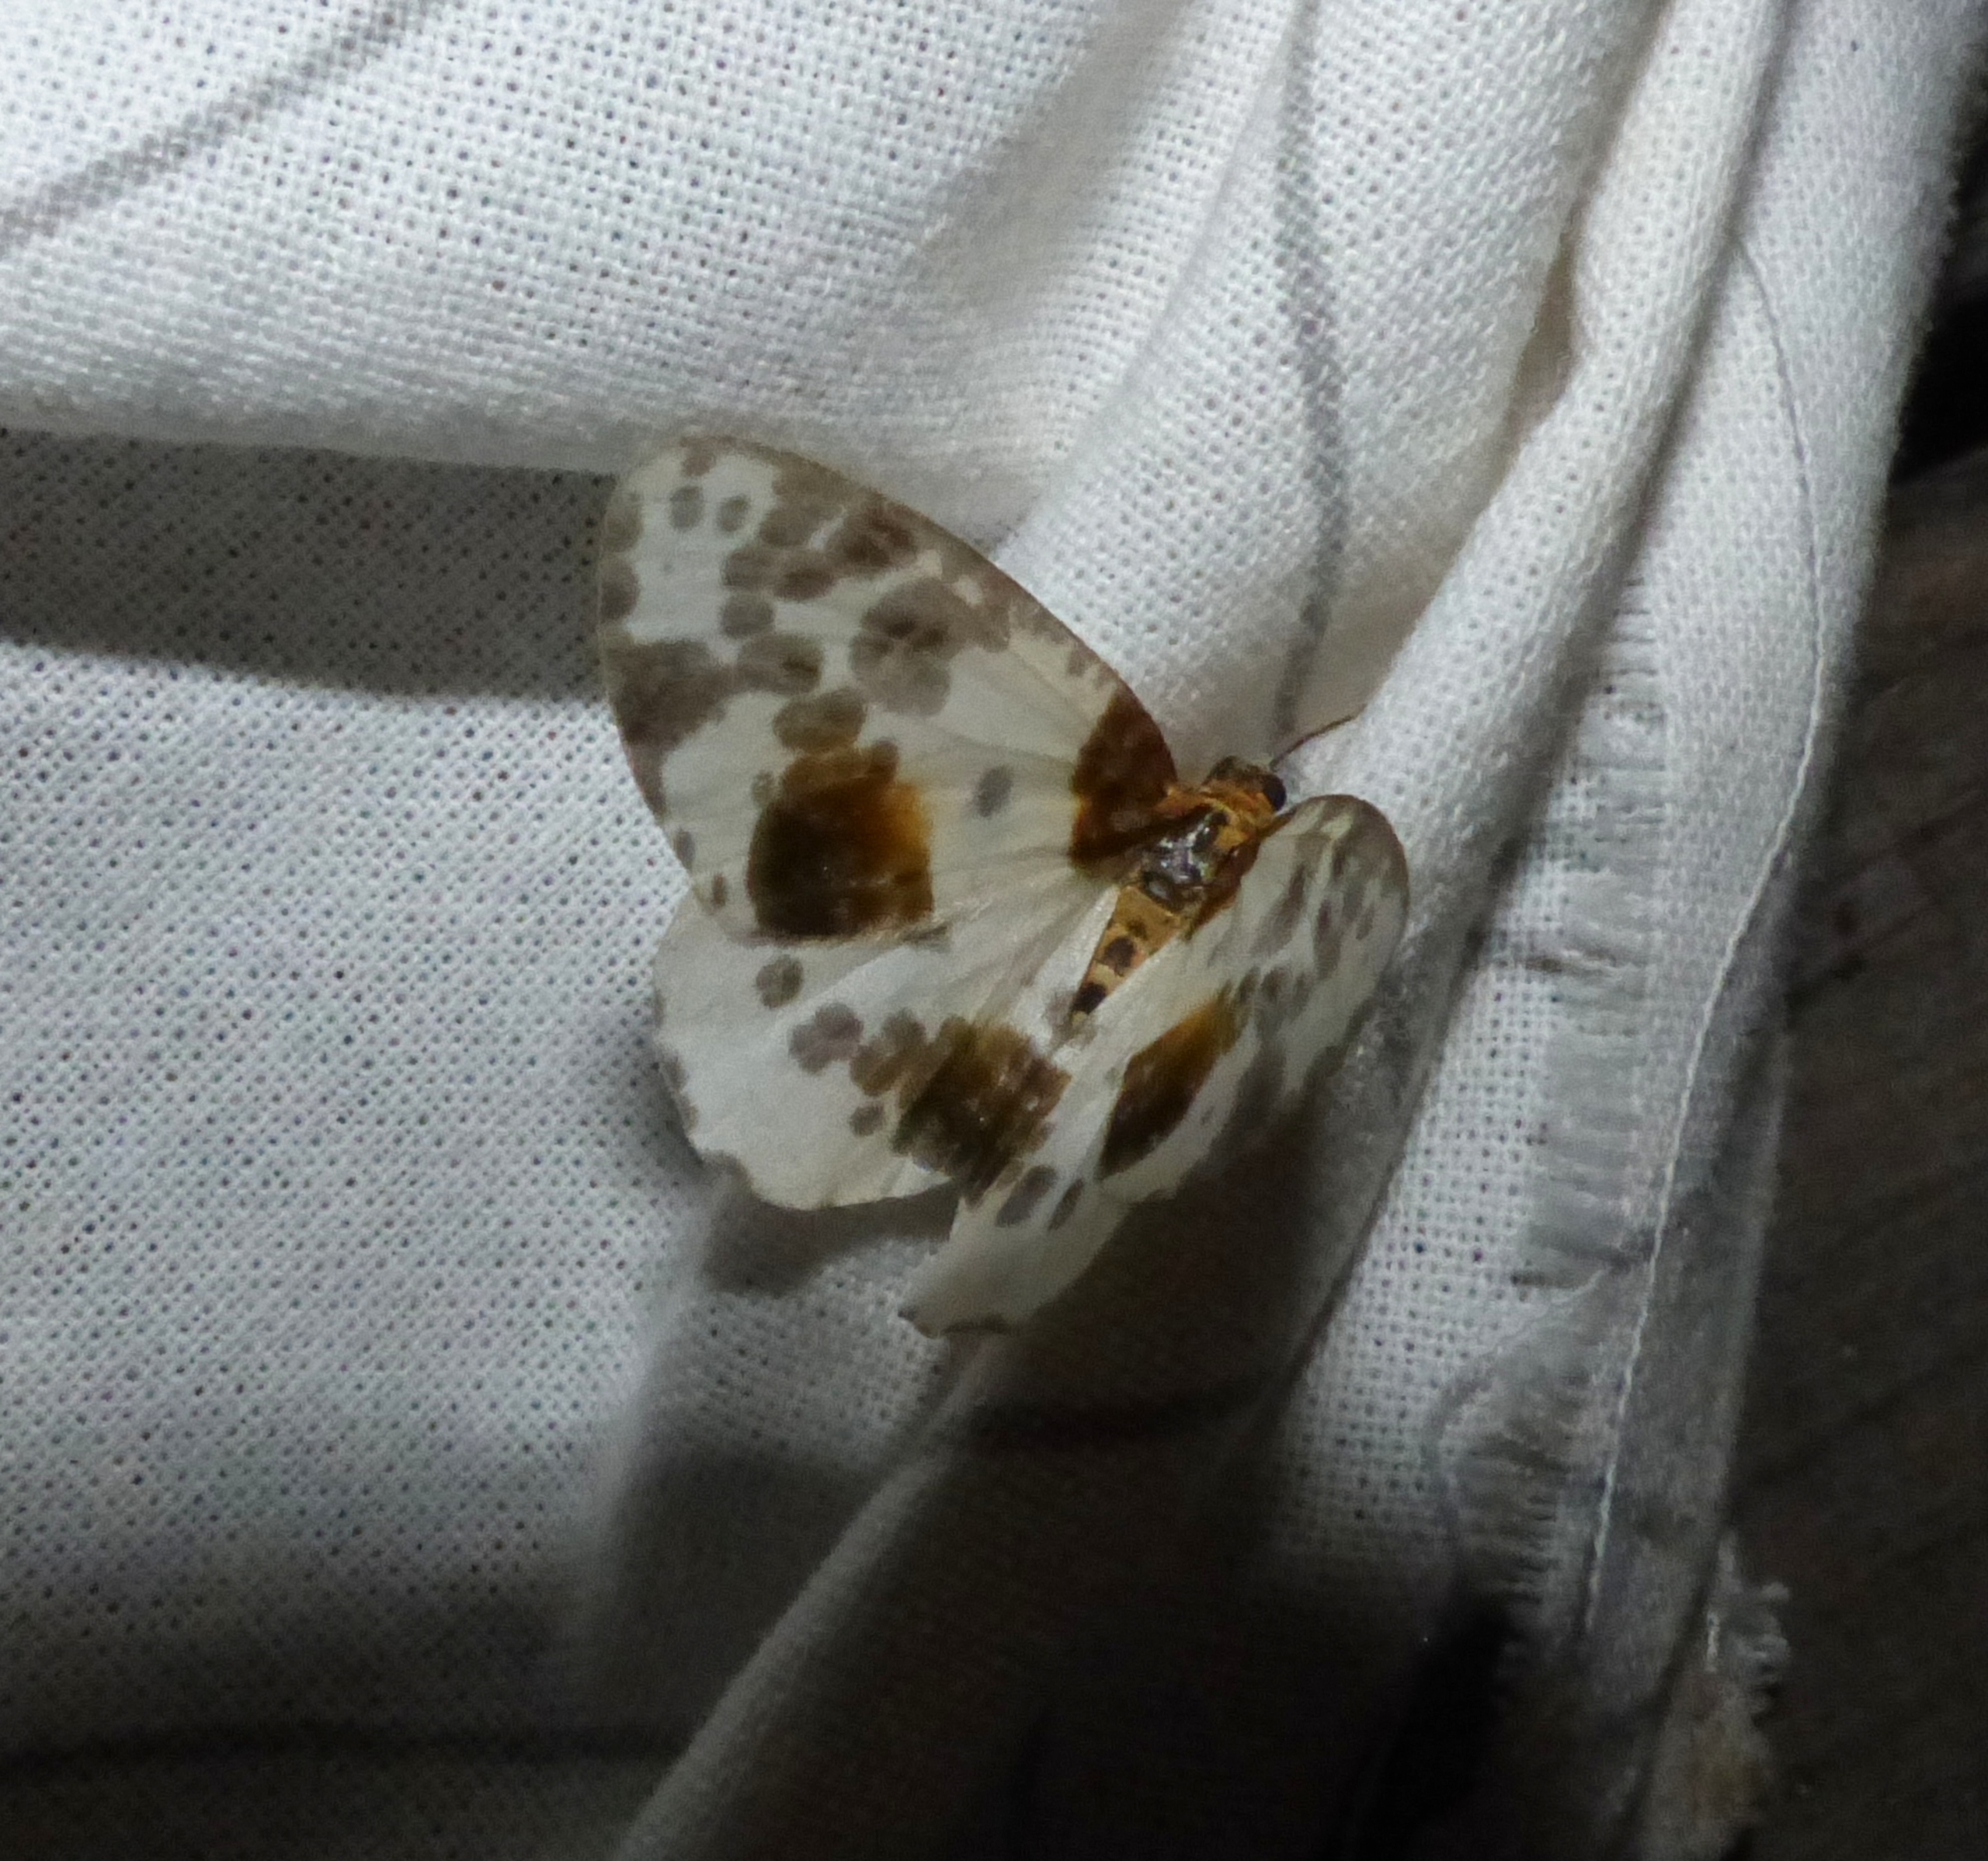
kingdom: Animalia
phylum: Arthropoda
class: Insecta
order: Lepidoptera
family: Geometridae
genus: Abraxas
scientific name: Abraxas sylvata
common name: Elmemåler
